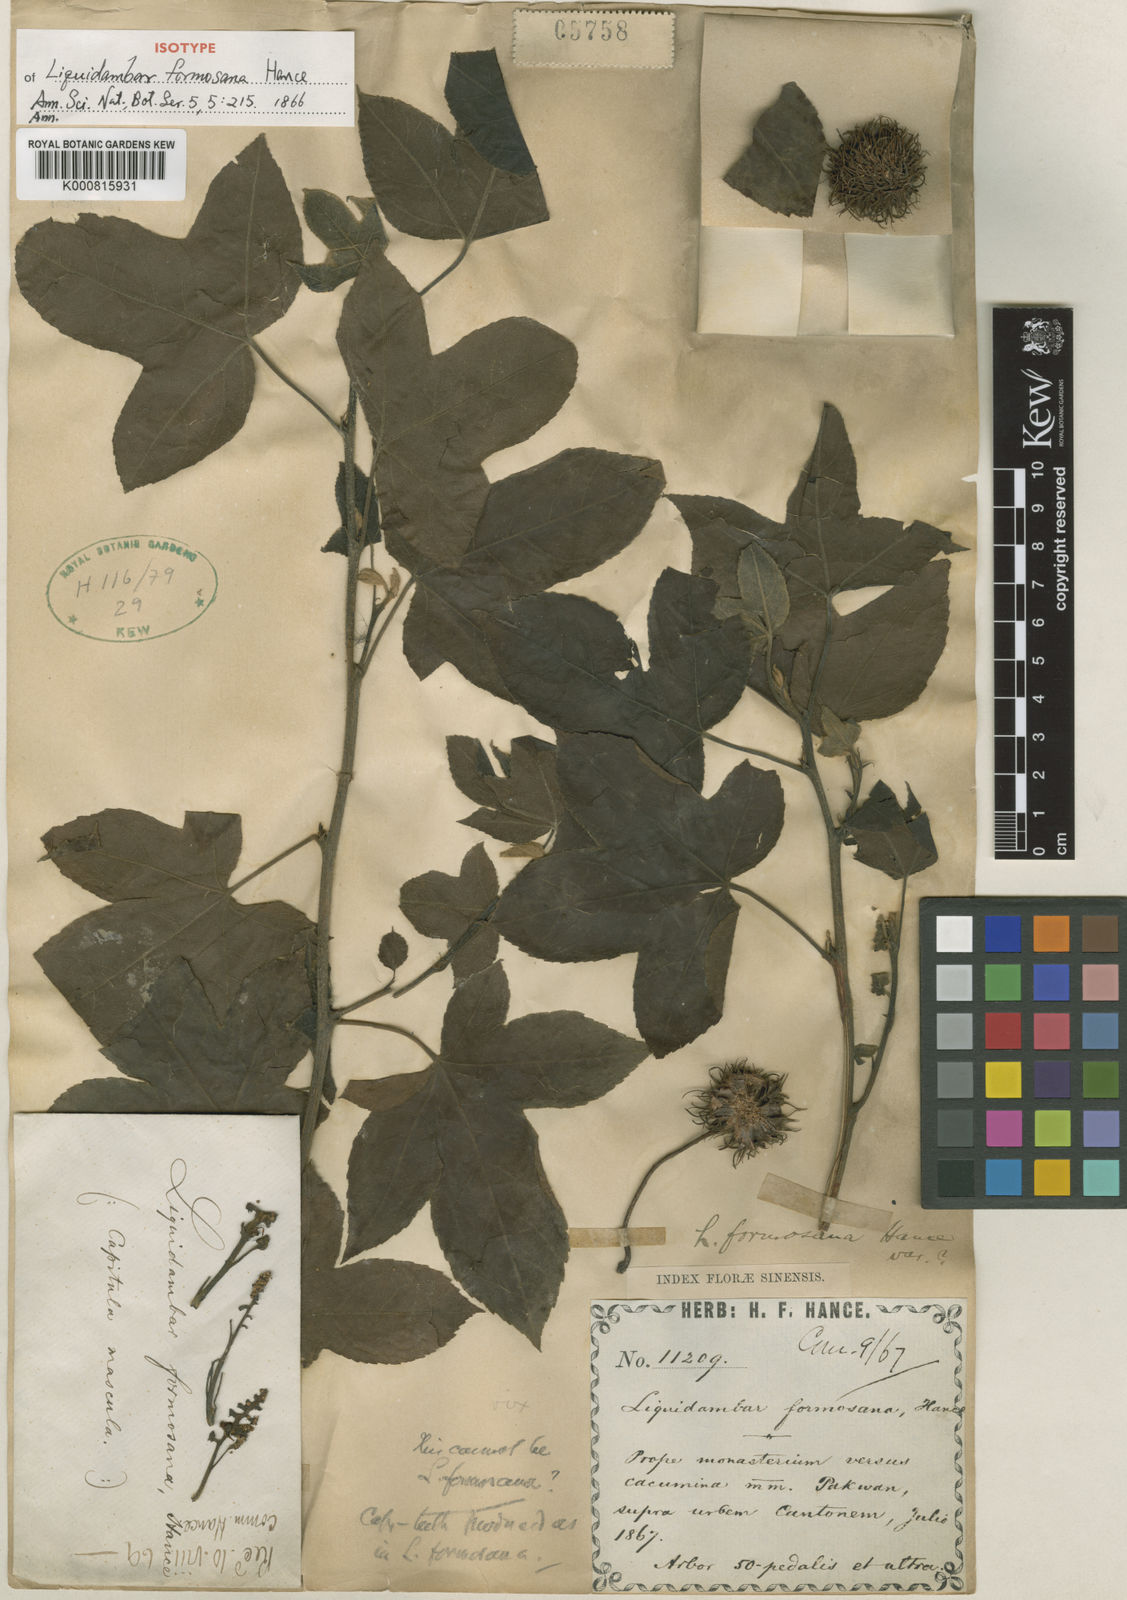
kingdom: Plantae
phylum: Tracheophyta
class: Magnoliopsida
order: Saxifragales
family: Altingiaceae
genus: Liquidambar
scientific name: Liquidambar formosana
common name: Chinese sweet gum
